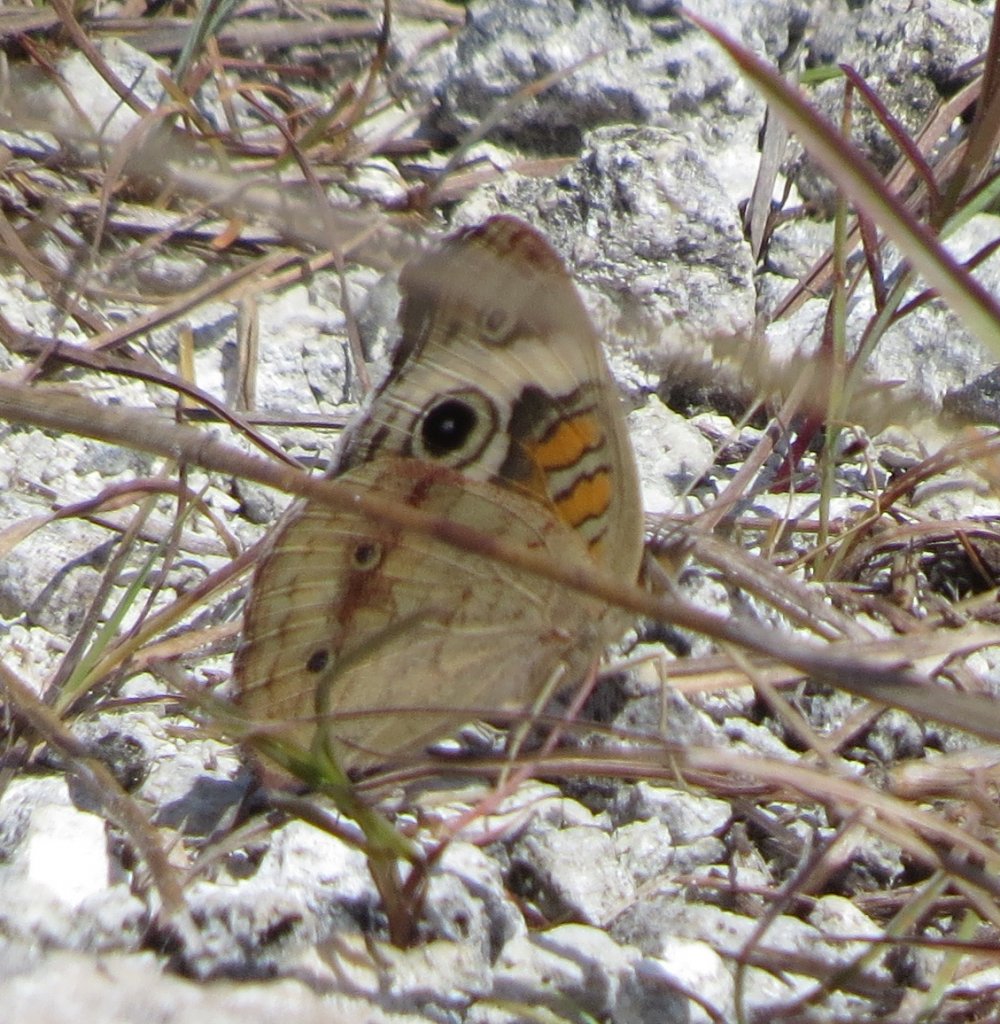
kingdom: Animalia
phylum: Arthropoda
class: Insecta
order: Lepidoptera
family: Nymphalidae
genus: Junonia
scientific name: Junonia coenia
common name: Common Buckeye
